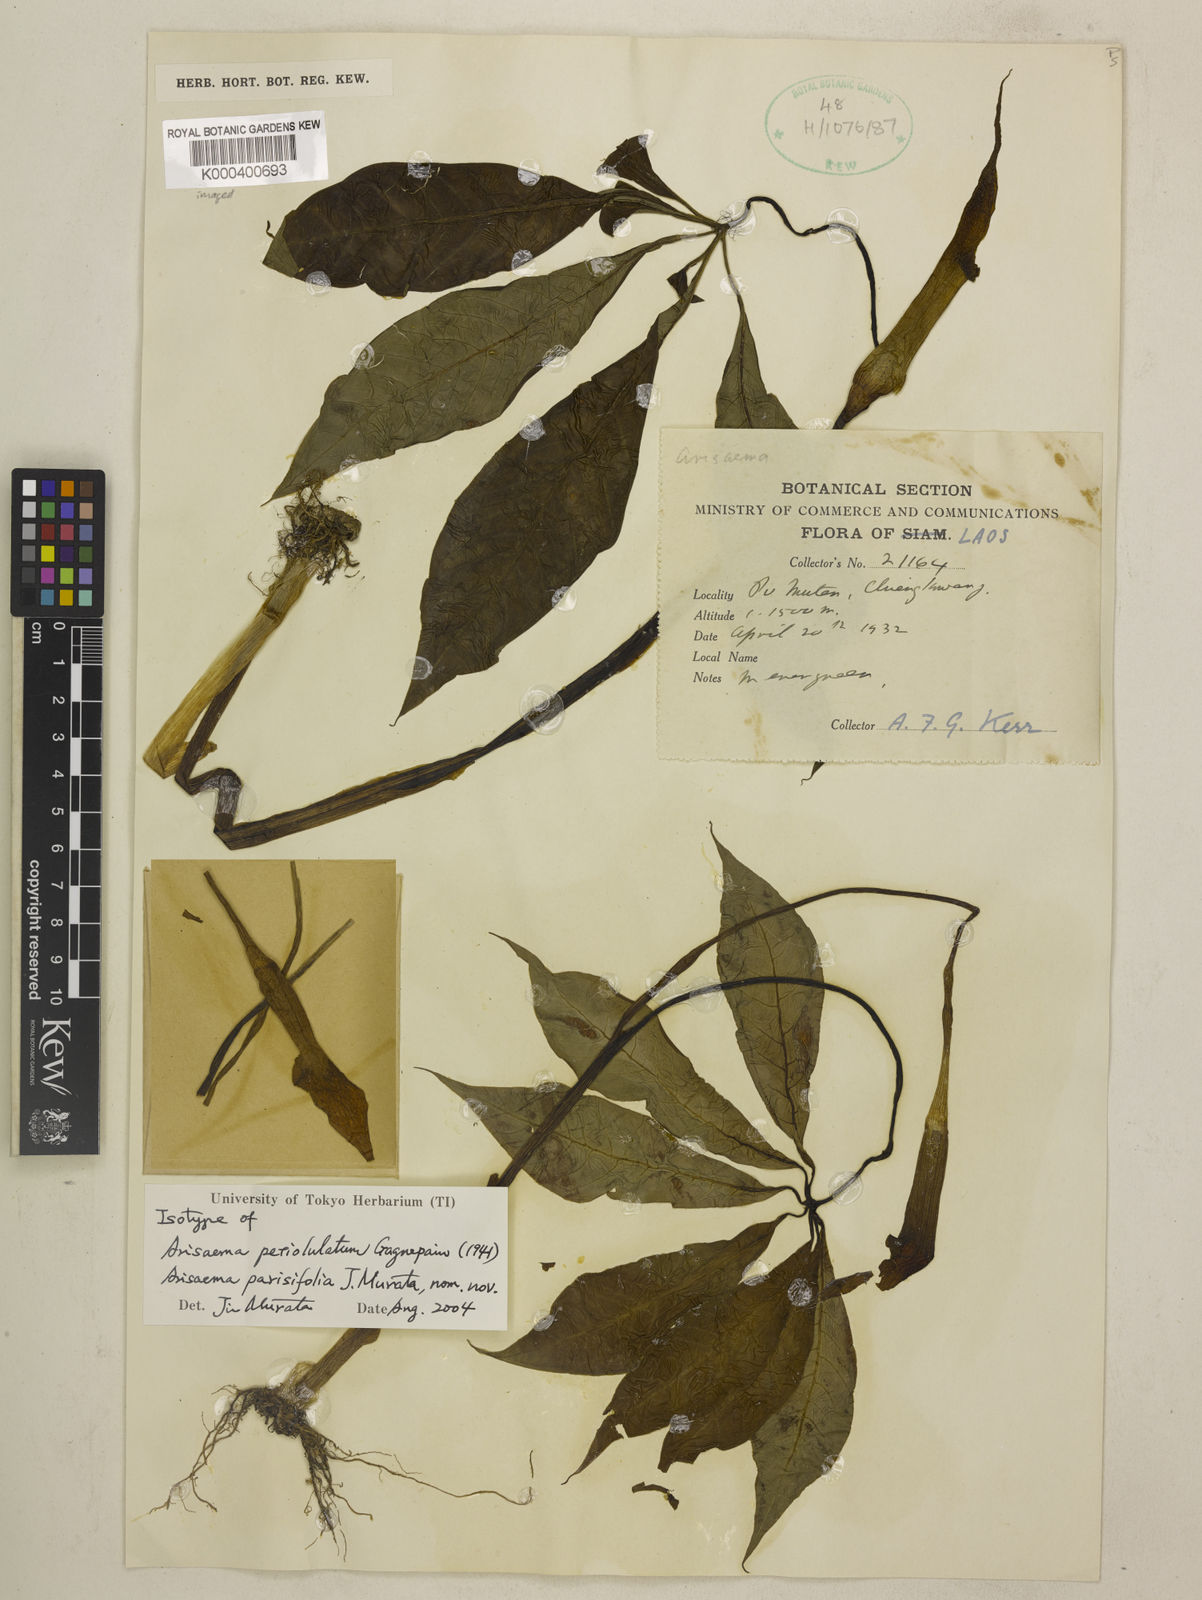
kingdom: Plantae
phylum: Tracheophyta
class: Liliopsida
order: Alismatales
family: Araceae
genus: Arisaema
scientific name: Arisaema parisifolium
